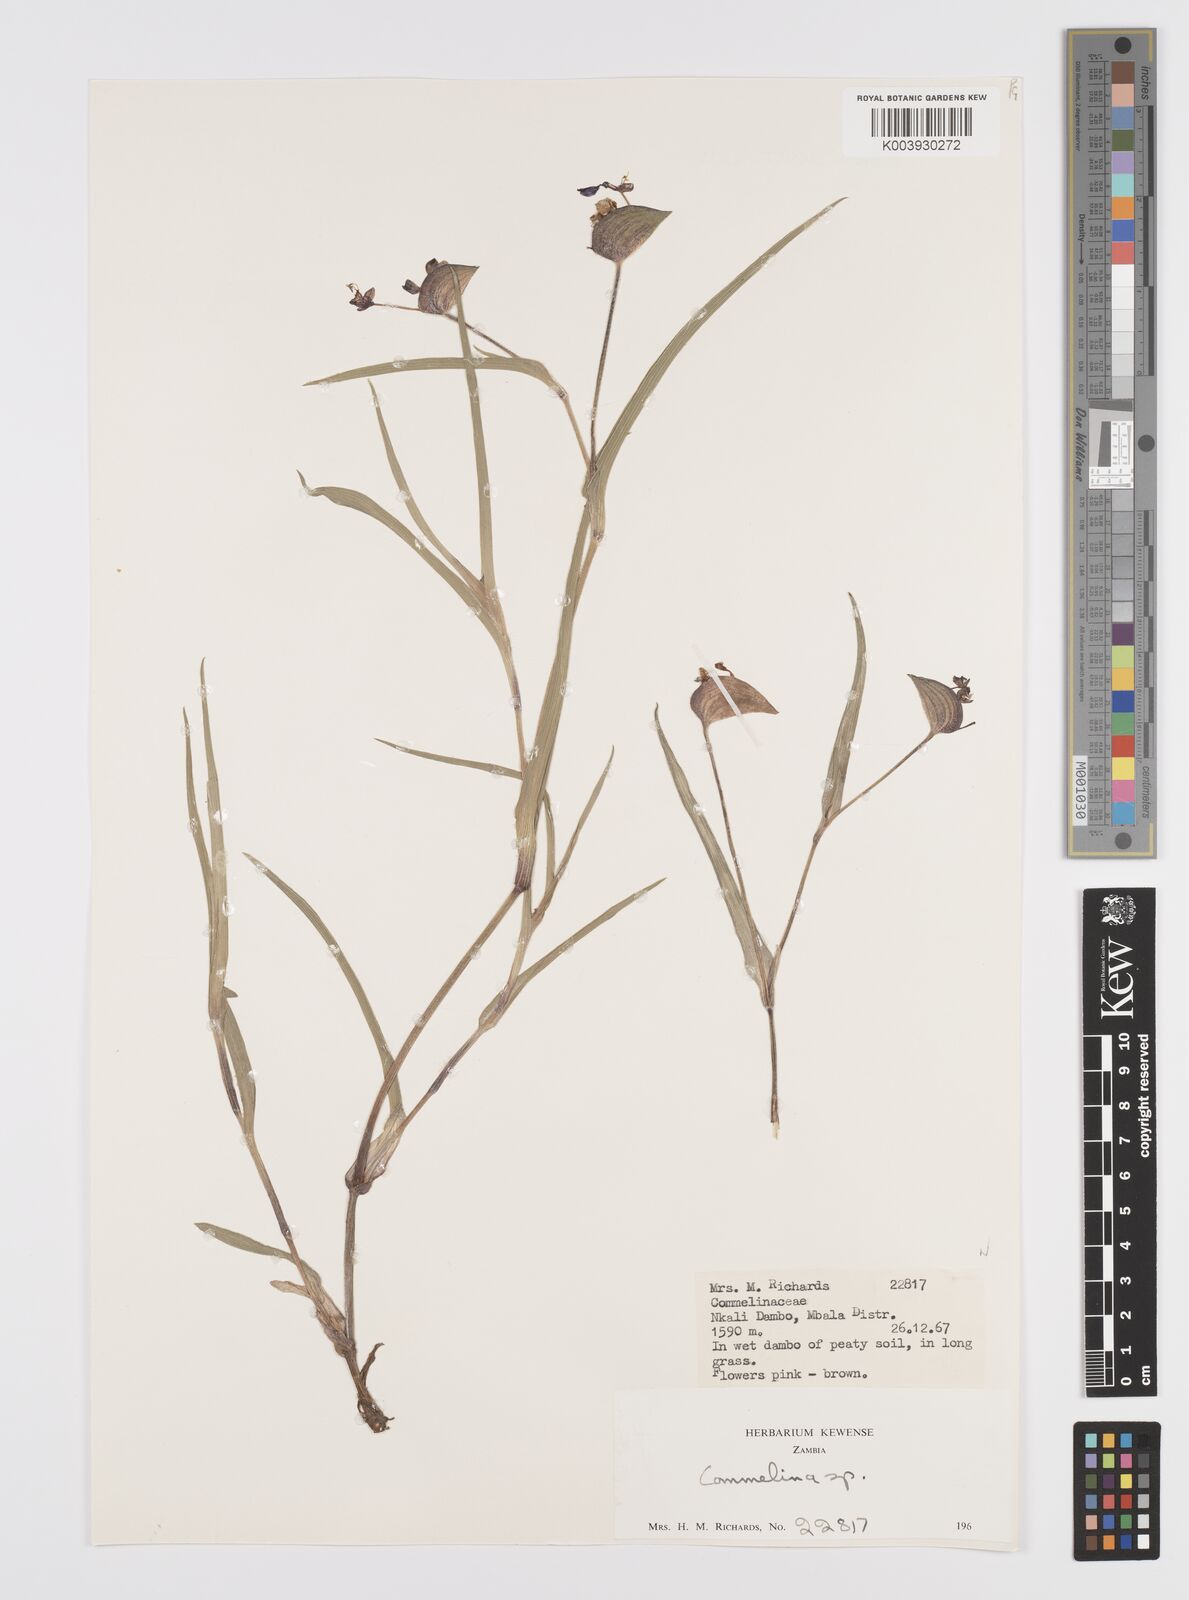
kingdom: Plantae
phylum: Tracheophyta
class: Liliopsida
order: Commelinales
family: Commelinaceae
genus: Commelina
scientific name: Commelina schweinfurthii
